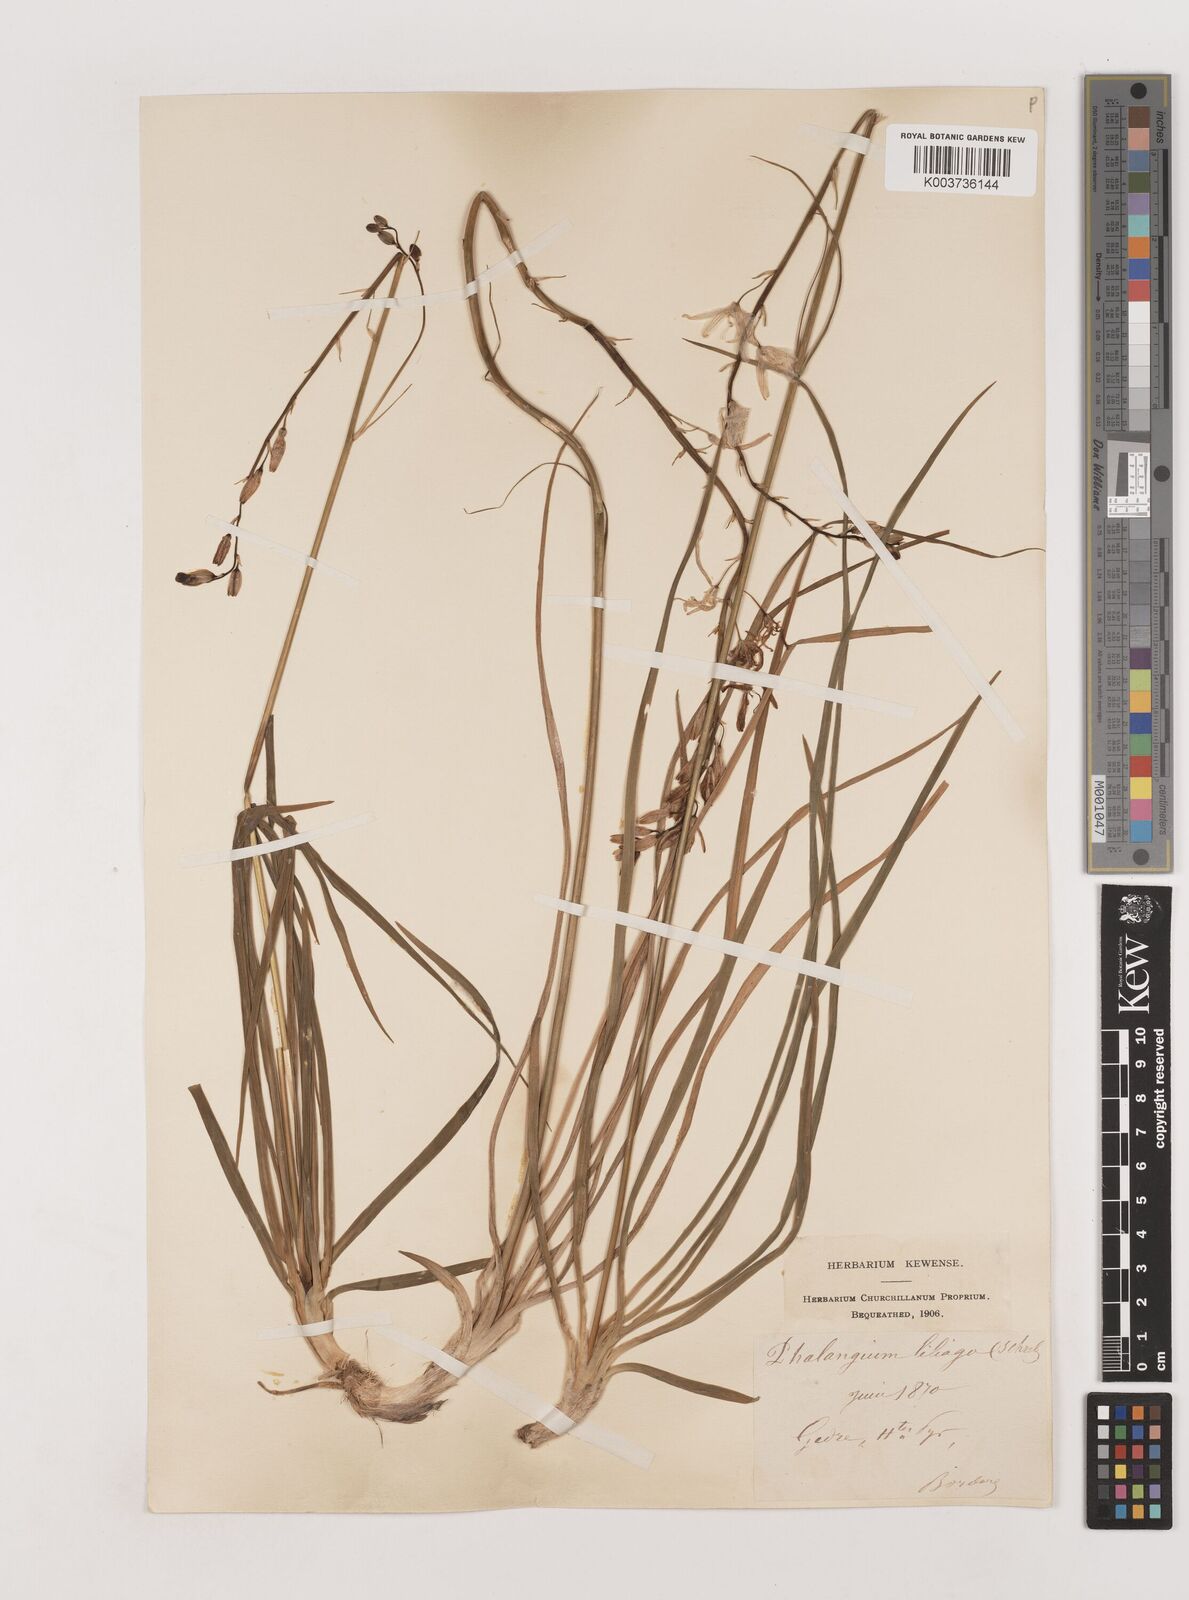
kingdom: Plantae
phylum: Tracheophyta
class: Liliopsida
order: Asparagales
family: Asparagaceae
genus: Anthericum
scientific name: Anthericum liliago
